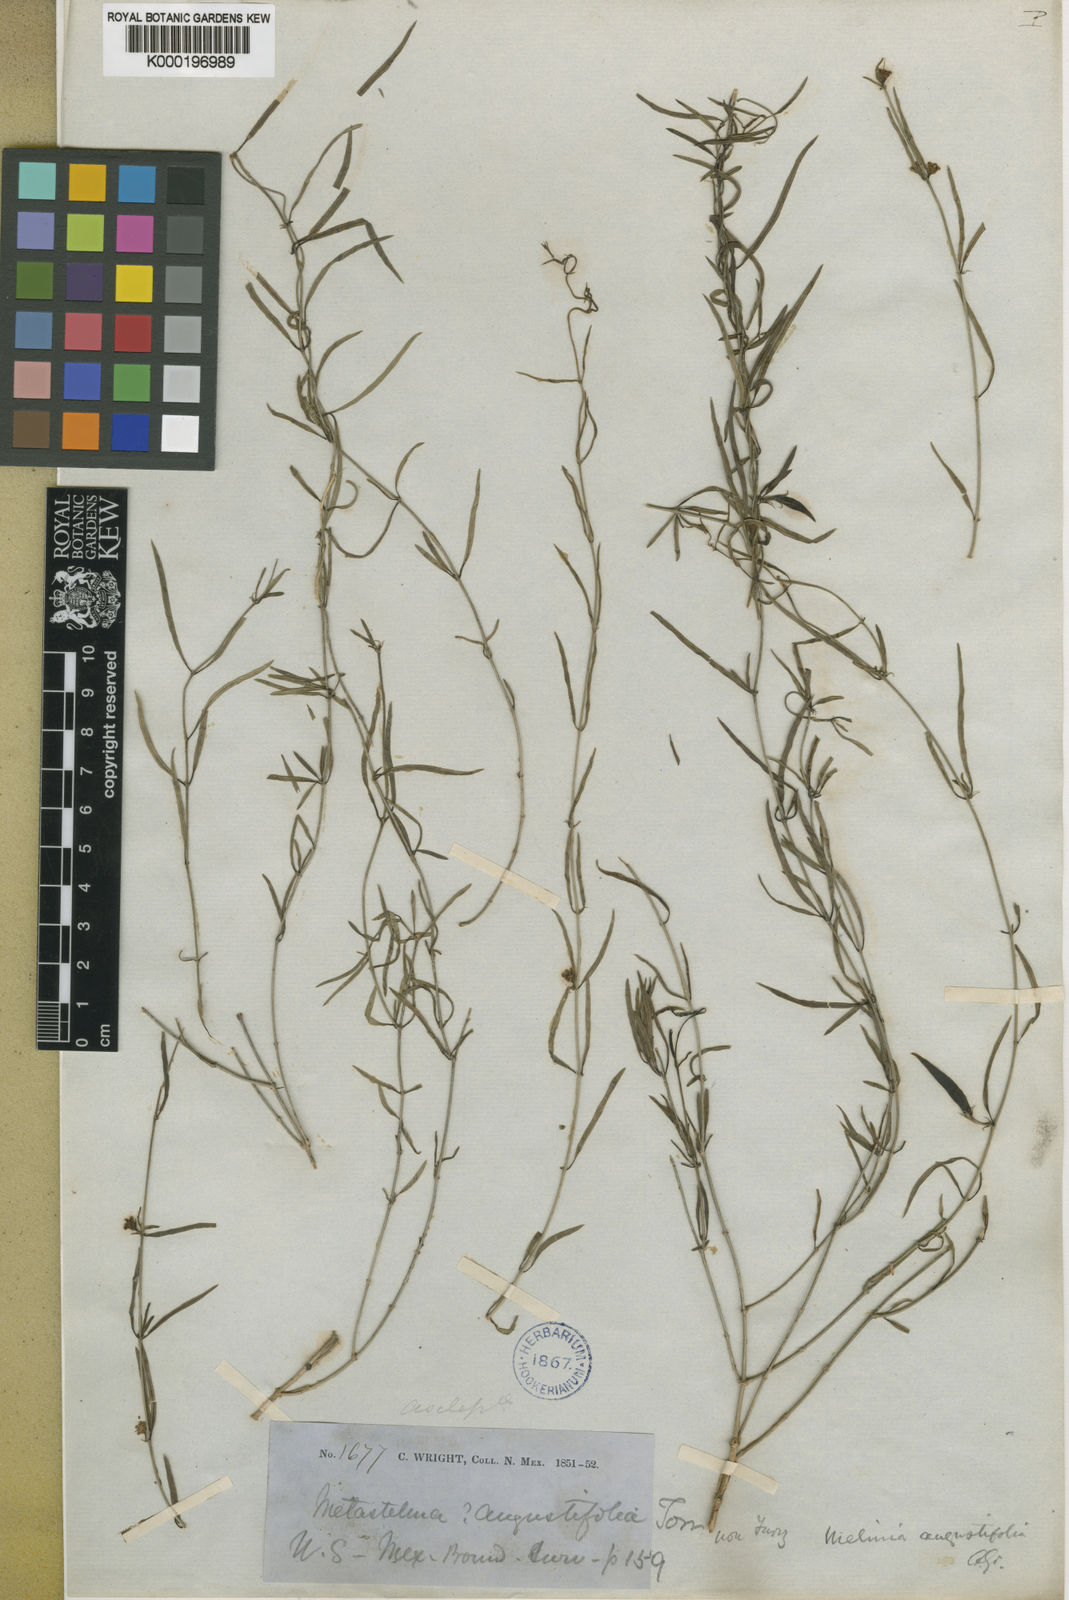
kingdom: Plantae
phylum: Tracheophyta
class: Magnoliopsida
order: Gentianales
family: Apocynaceae
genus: Metastelma
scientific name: Metastelma mexicanum
